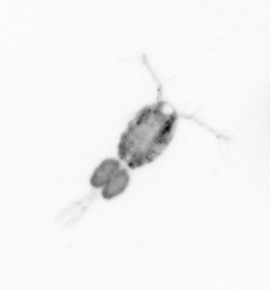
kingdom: Animalia
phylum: Arthropoda
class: Copepoda
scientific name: Copepoda
